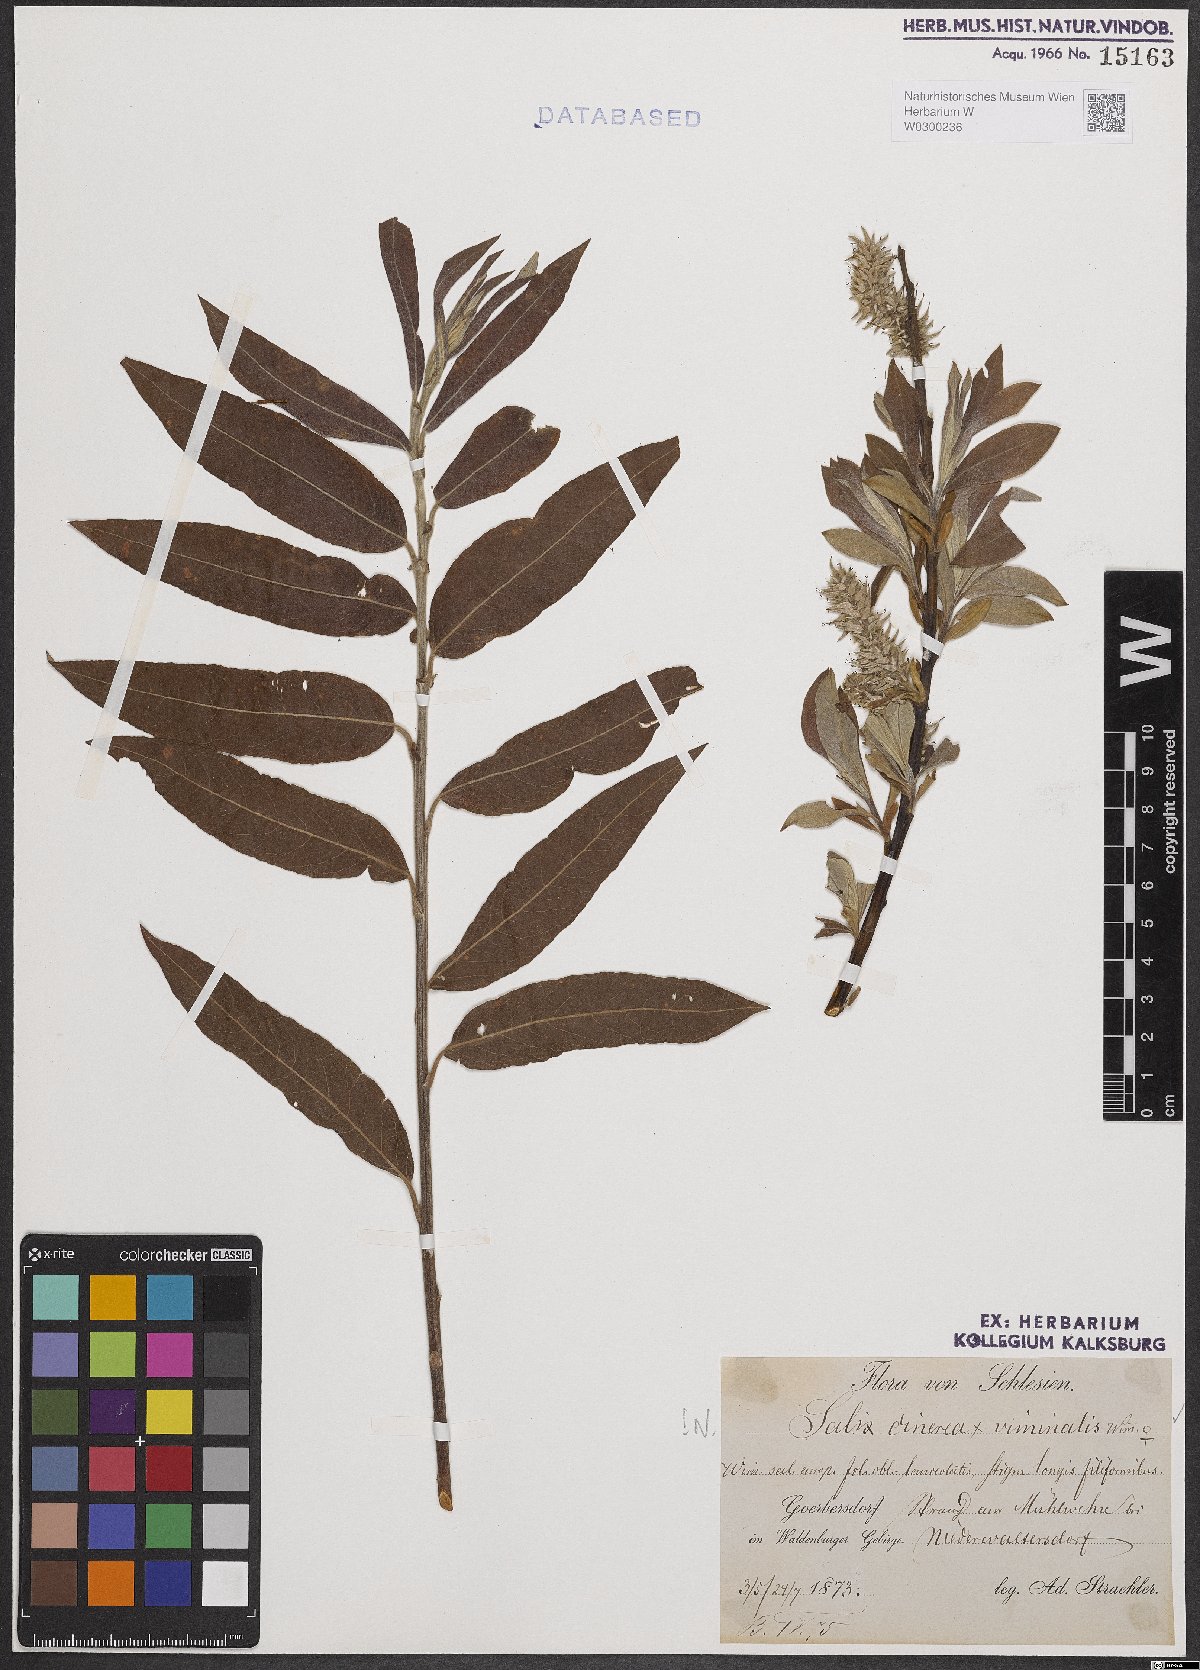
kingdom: Plantae
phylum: Tracheophyta
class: Magnoliopsida
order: Malpighiales
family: Salicaceae
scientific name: Salicaceae
